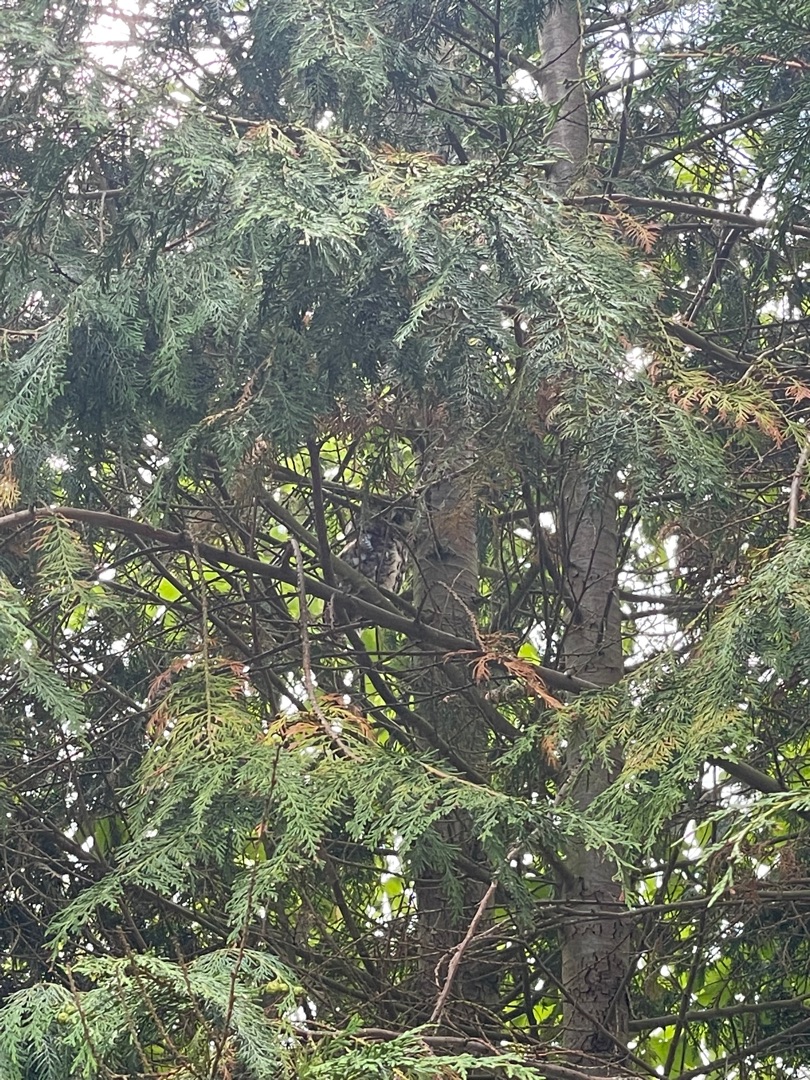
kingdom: Animalia
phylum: Chordata
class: Aves
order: Strigiformes
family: Strigidae
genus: Strix
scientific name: Strix aluco
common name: Natugle
